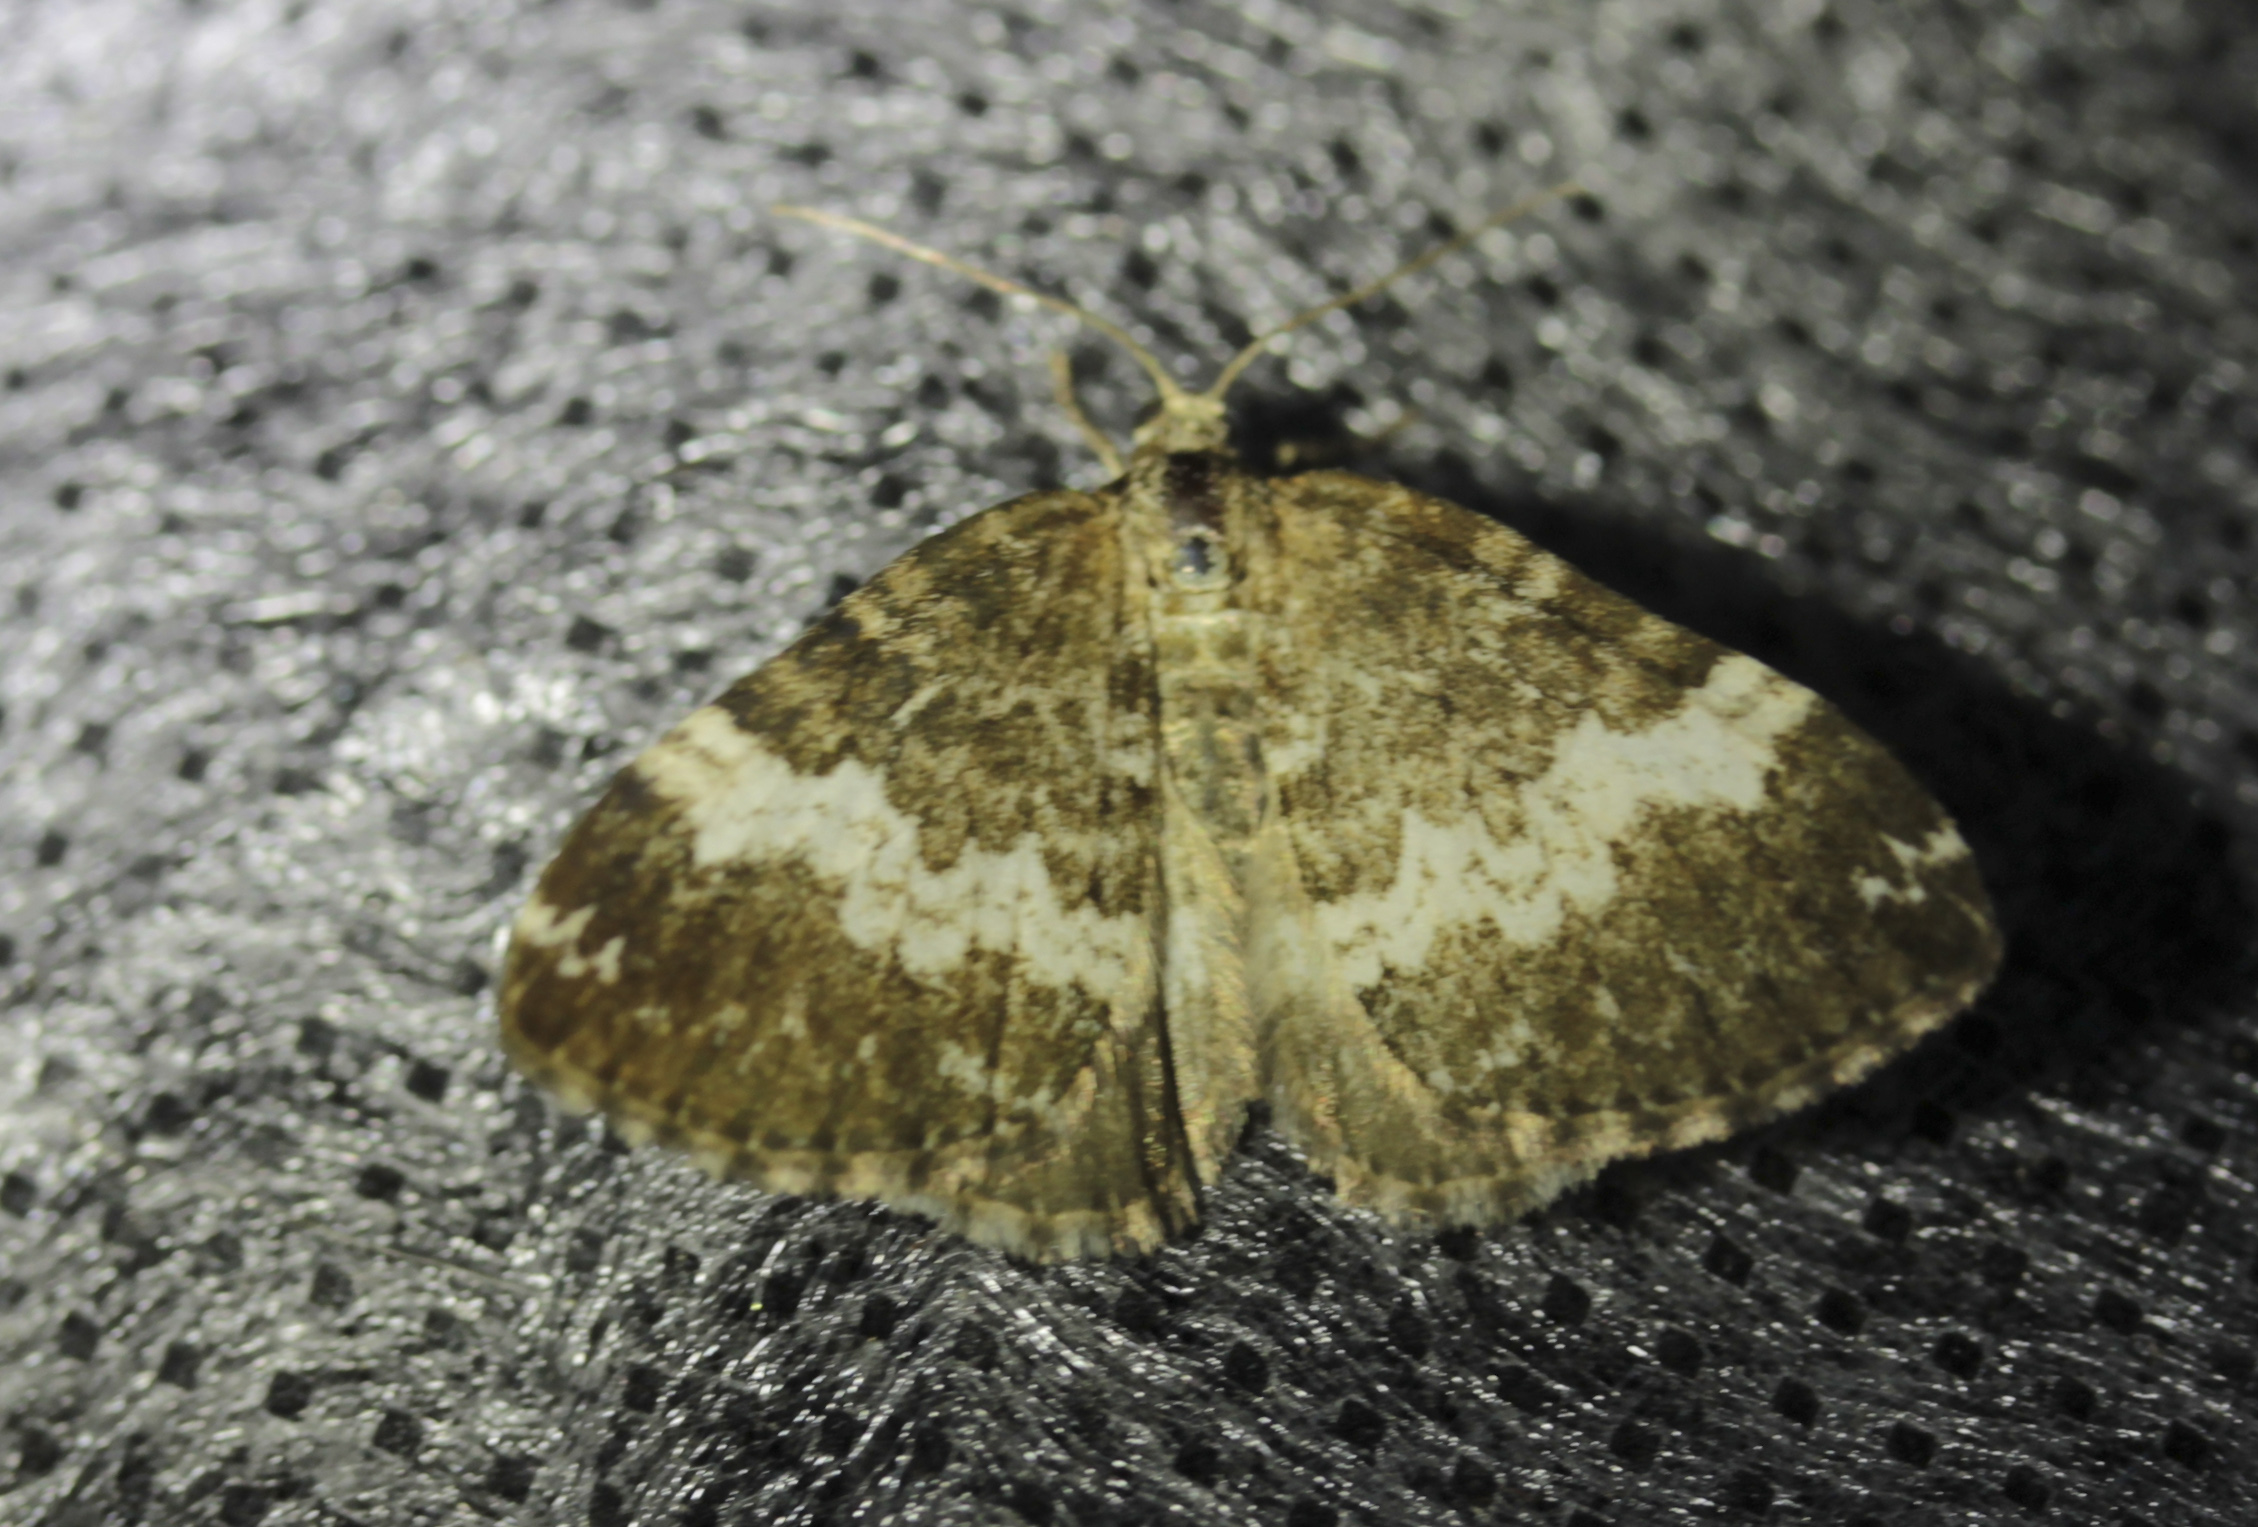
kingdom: Animalia
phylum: Arthropoda
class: Insecta
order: Lepidoptera
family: Geometridae
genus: Perizoma
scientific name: Perizoma affinitata
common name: Rivulet
